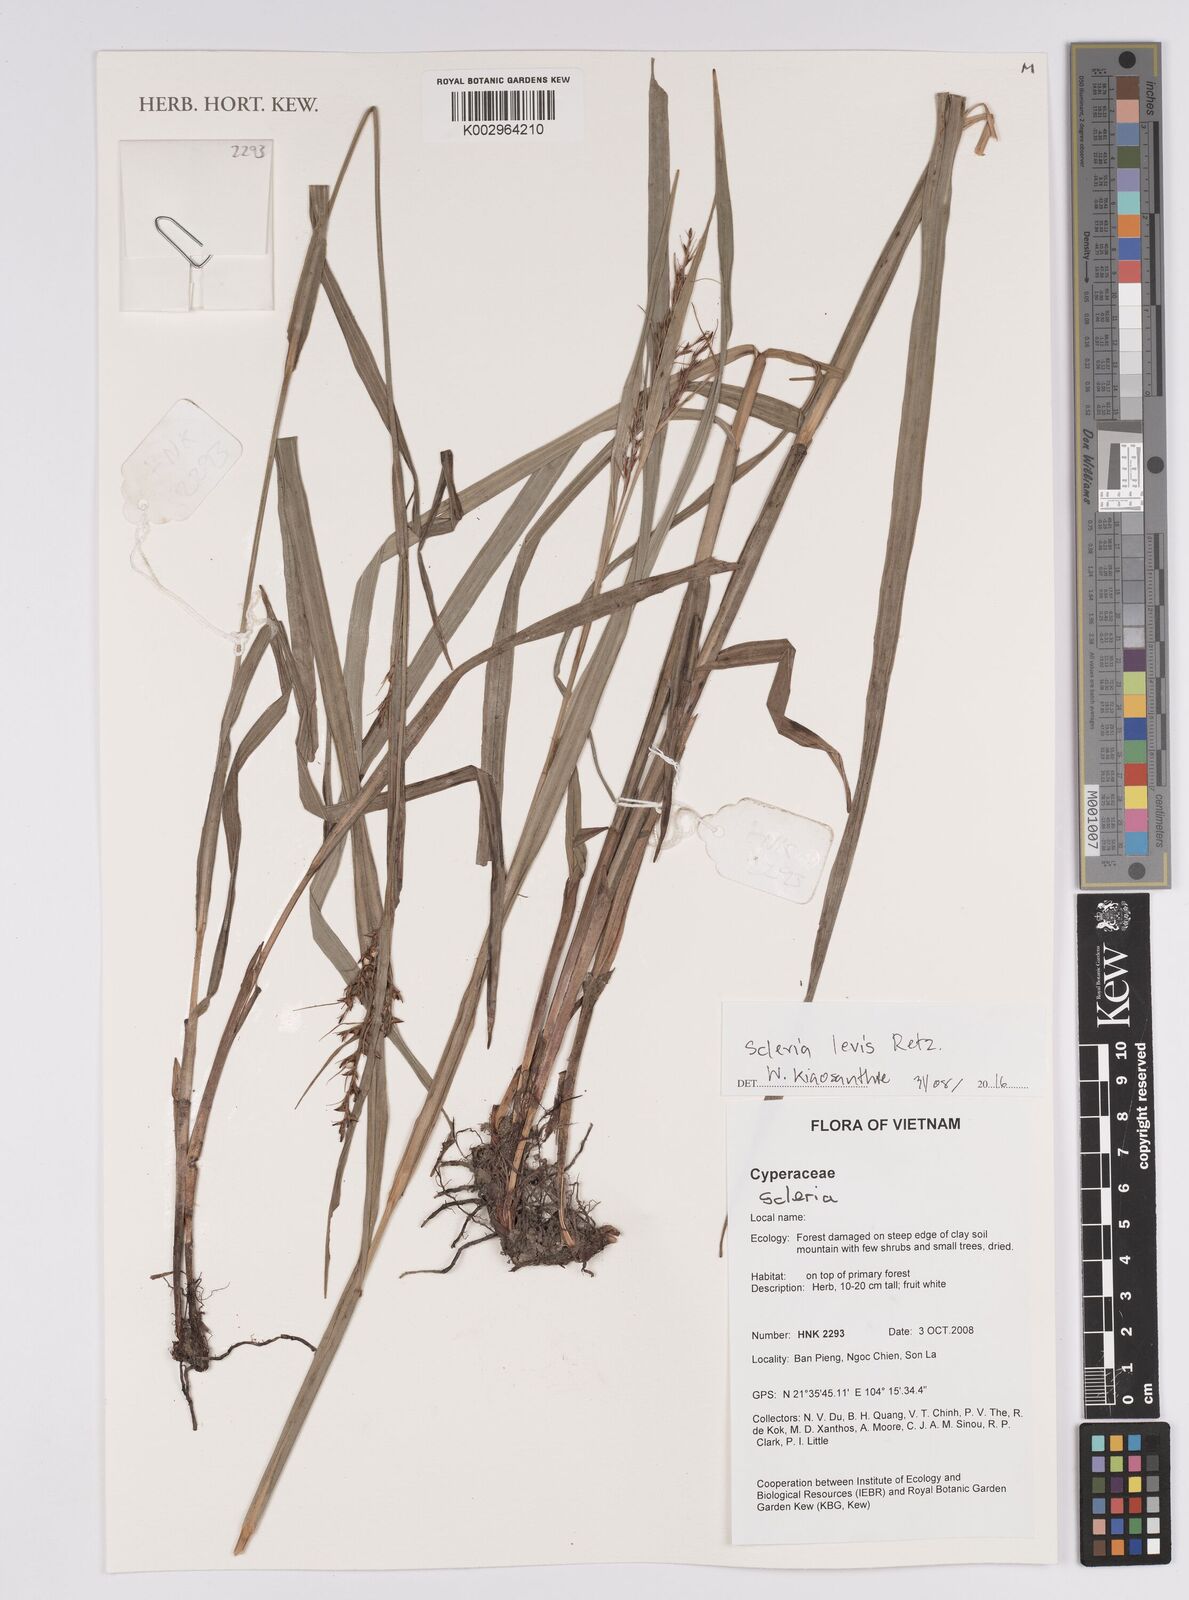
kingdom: Plantae
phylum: Tracheophyta
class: Liliopsida
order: Poales
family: Cyperaceae
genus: Scleria
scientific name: Scleria levis
